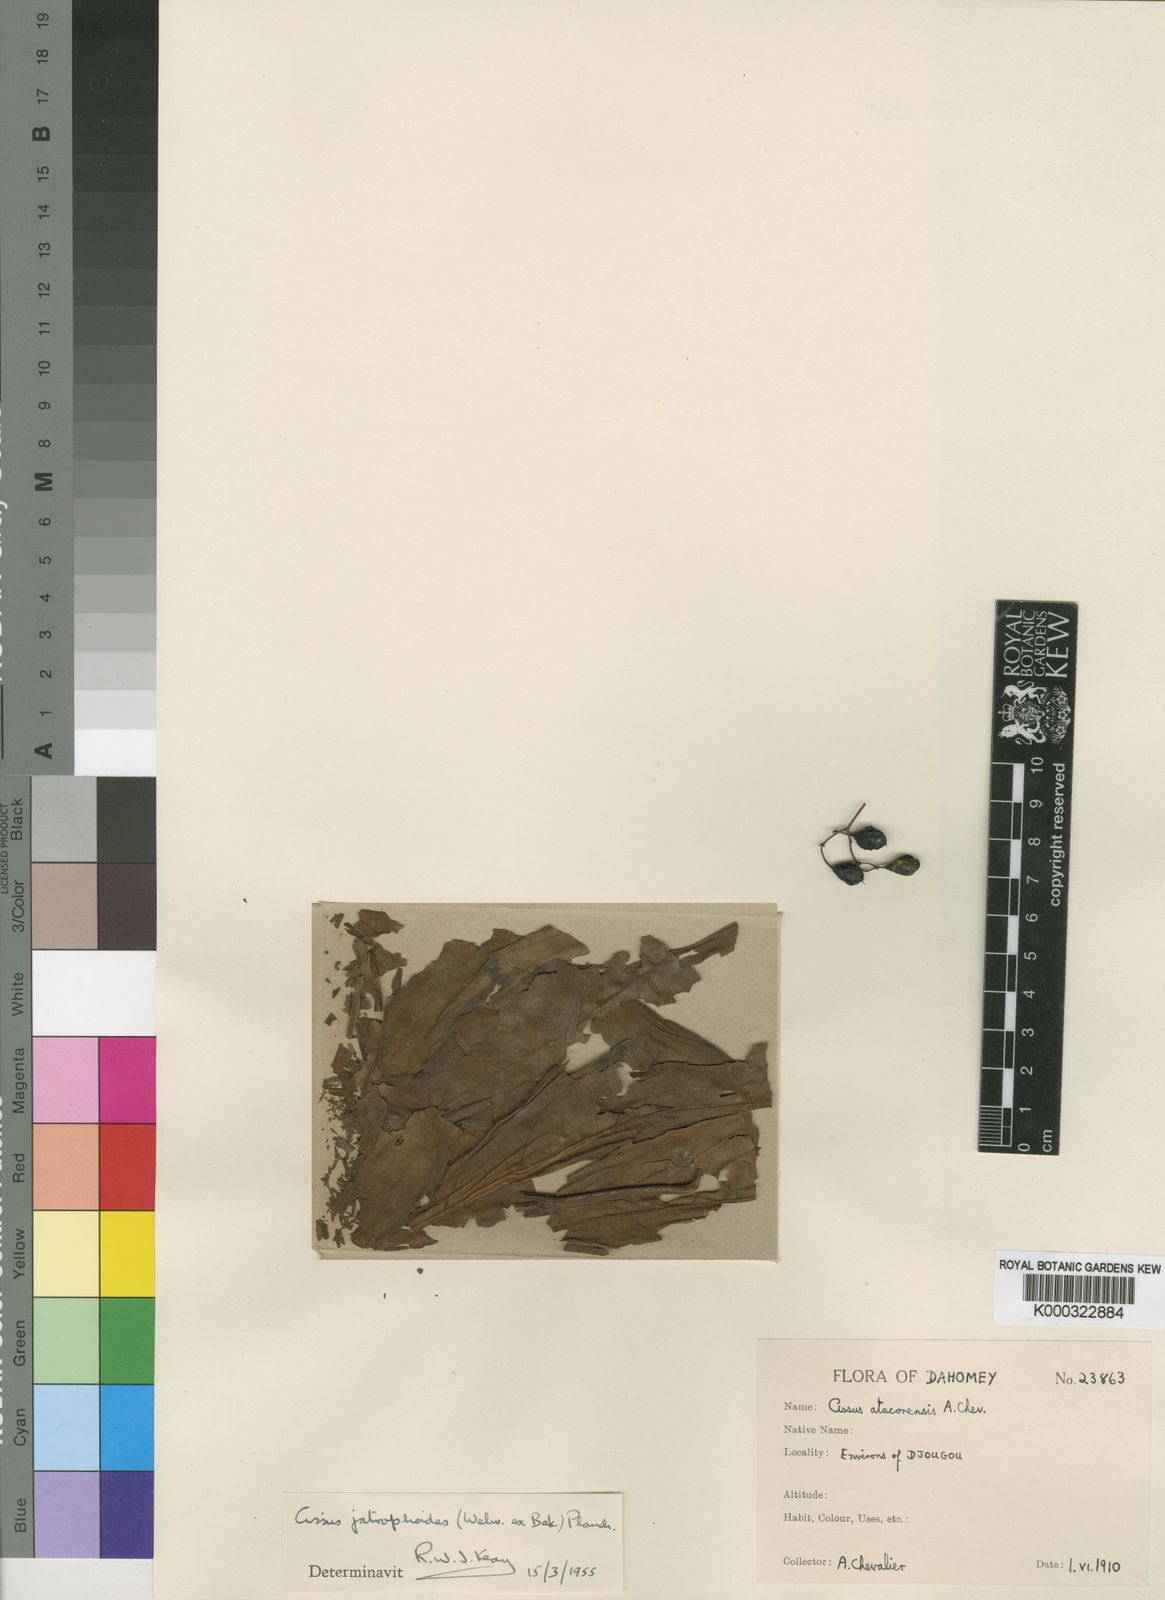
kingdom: Plantae
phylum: Tracheophyta
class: Magnoliopsida
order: Vitales
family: Vitaceae
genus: Cyphostemma
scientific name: Cyphostemma junceum
